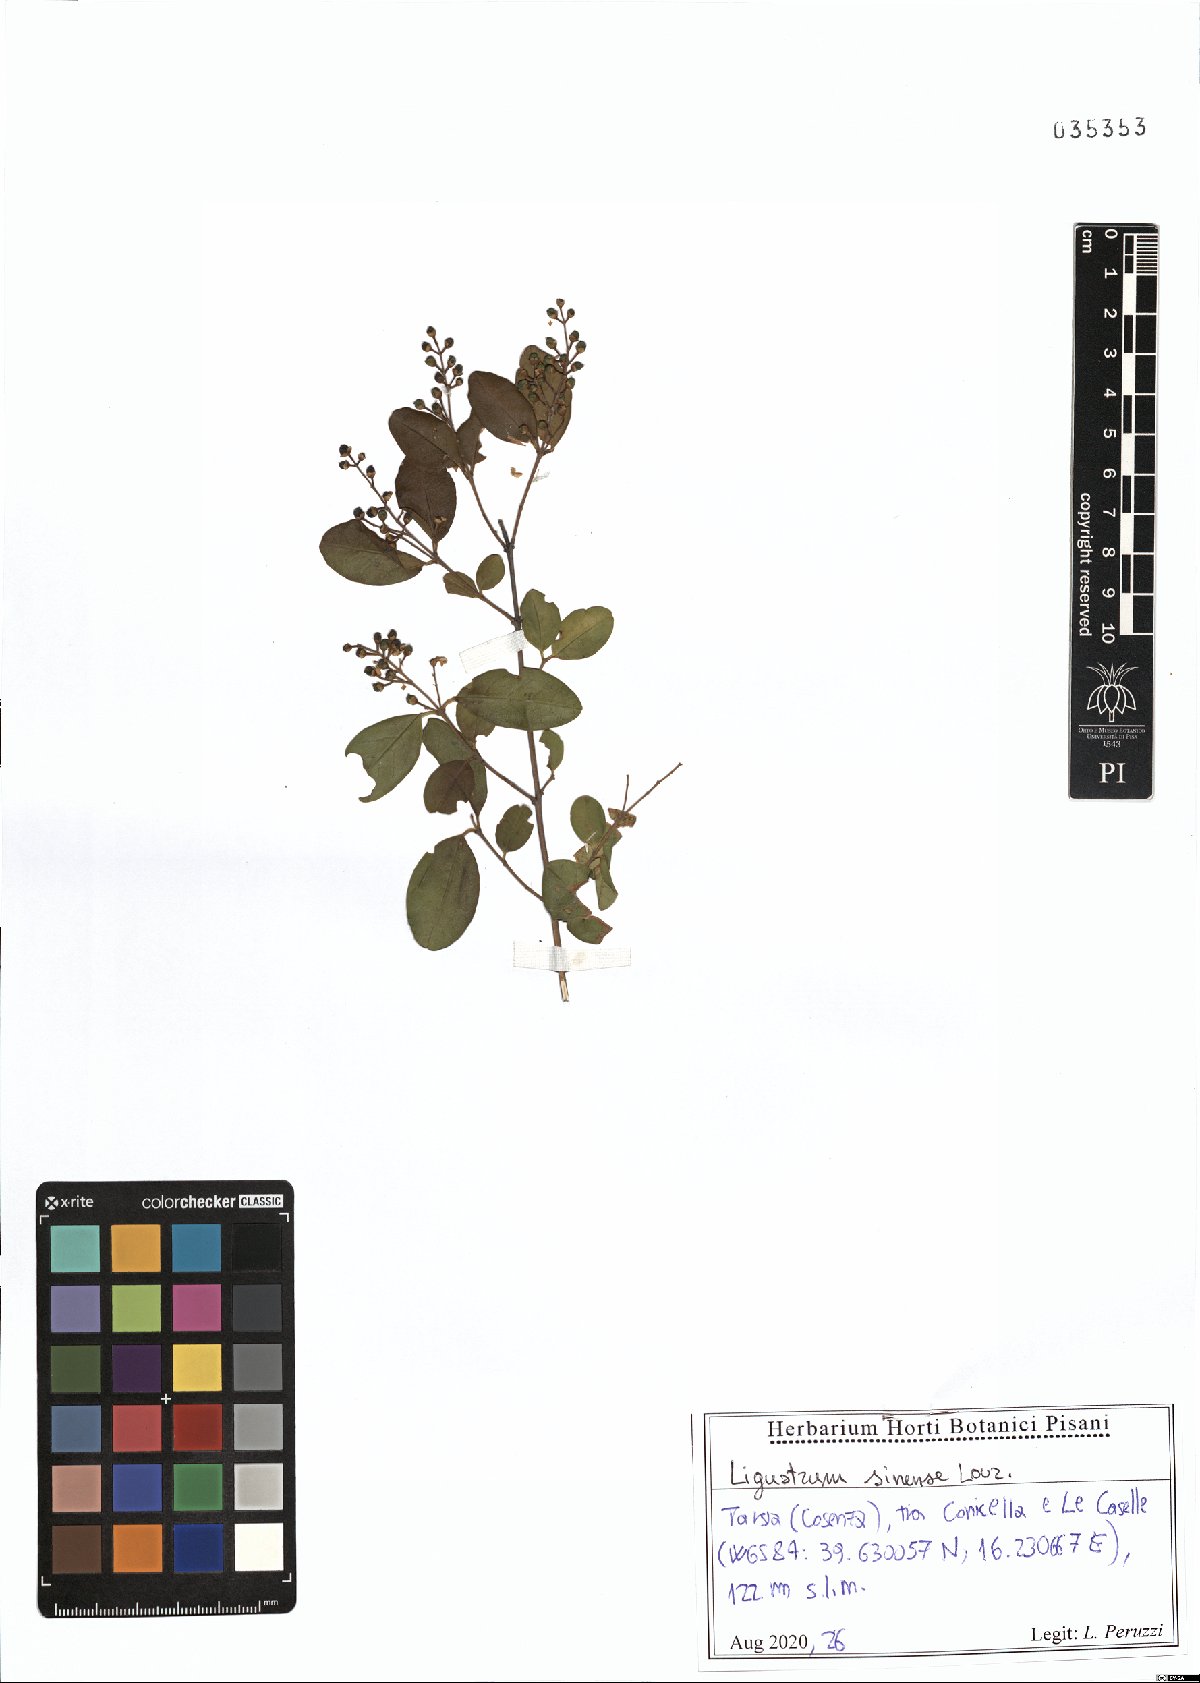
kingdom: Plantae
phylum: Tracheophyta
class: Magnoliopsida
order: Lamiales
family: Oleaceae
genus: Ligustrum
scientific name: Ligustrum sinense
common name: Chinese privet
